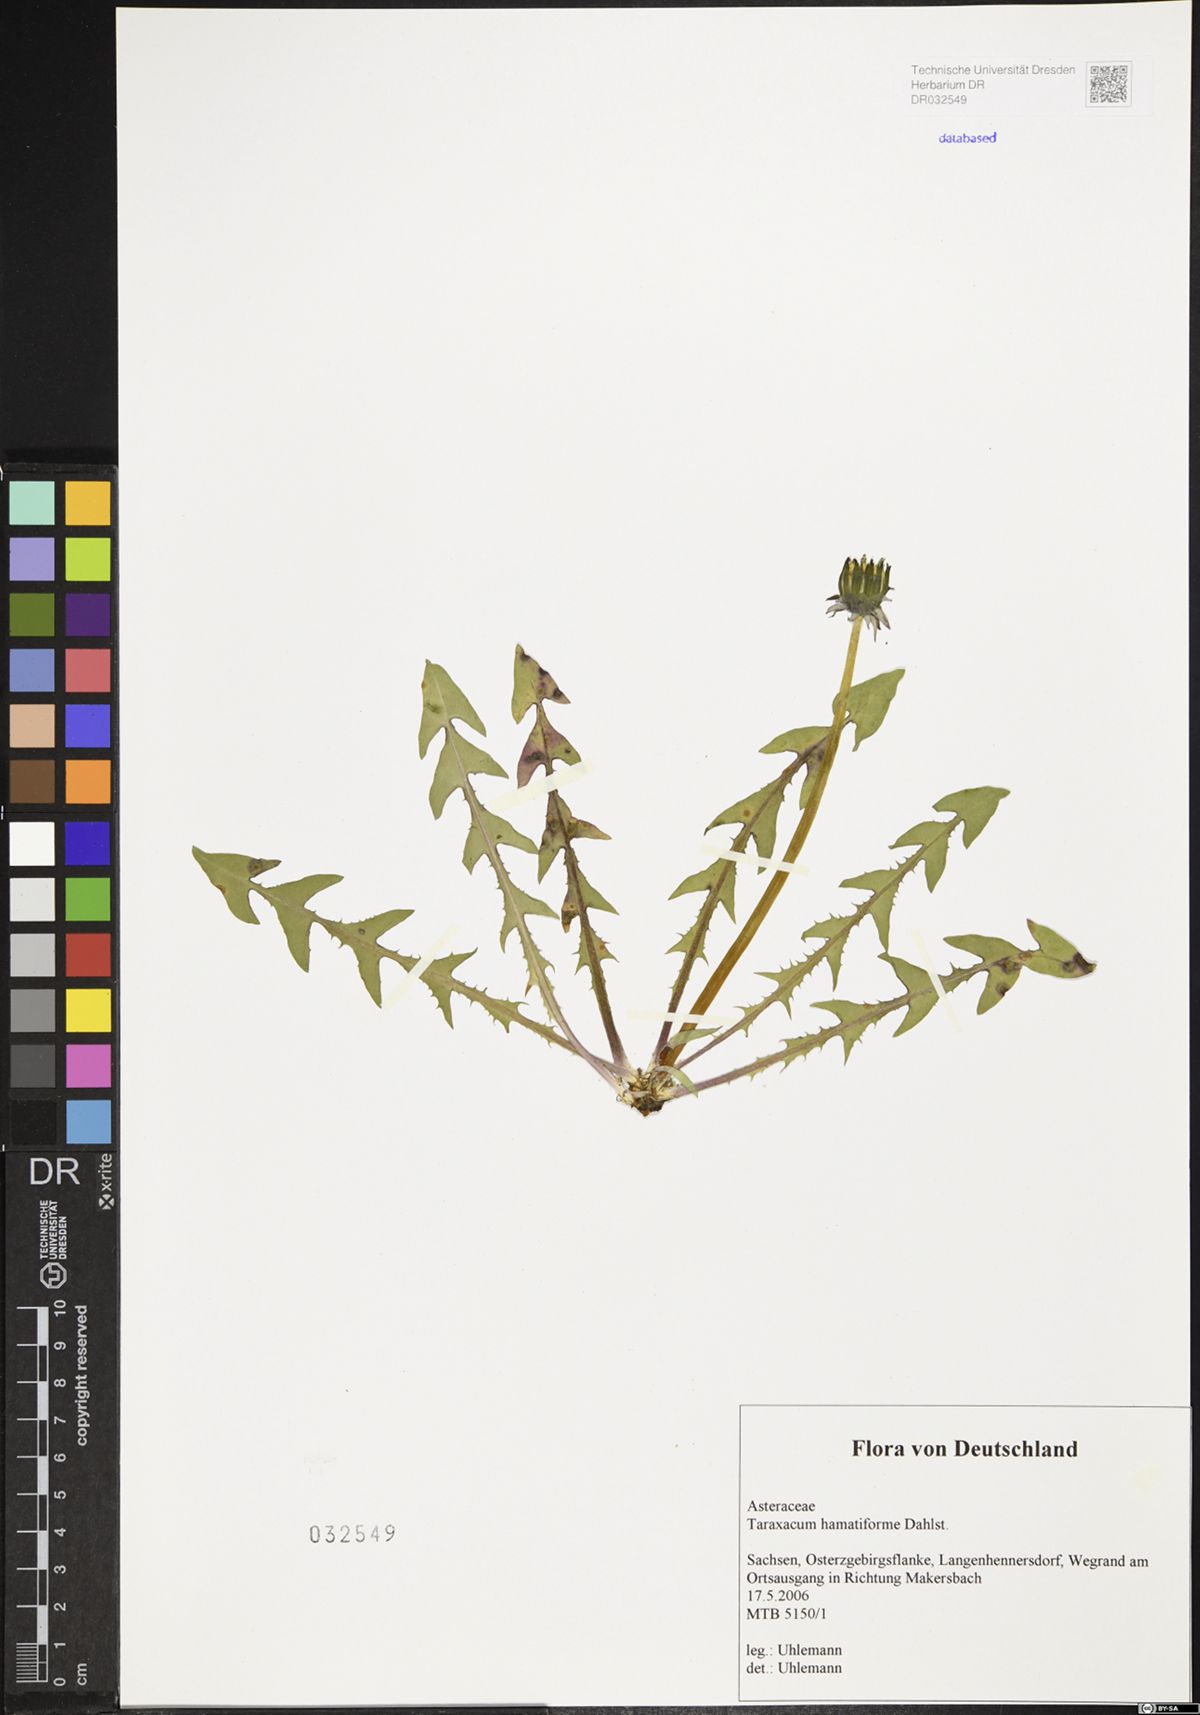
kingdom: Plantae
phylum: Tracheophyta
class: Magnoliopsida
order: Asterales
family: Asteraceae
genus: Taraxacum
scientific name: Taraxacum hamatiforme
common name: Asymmetrical hook-lobed dandelion
